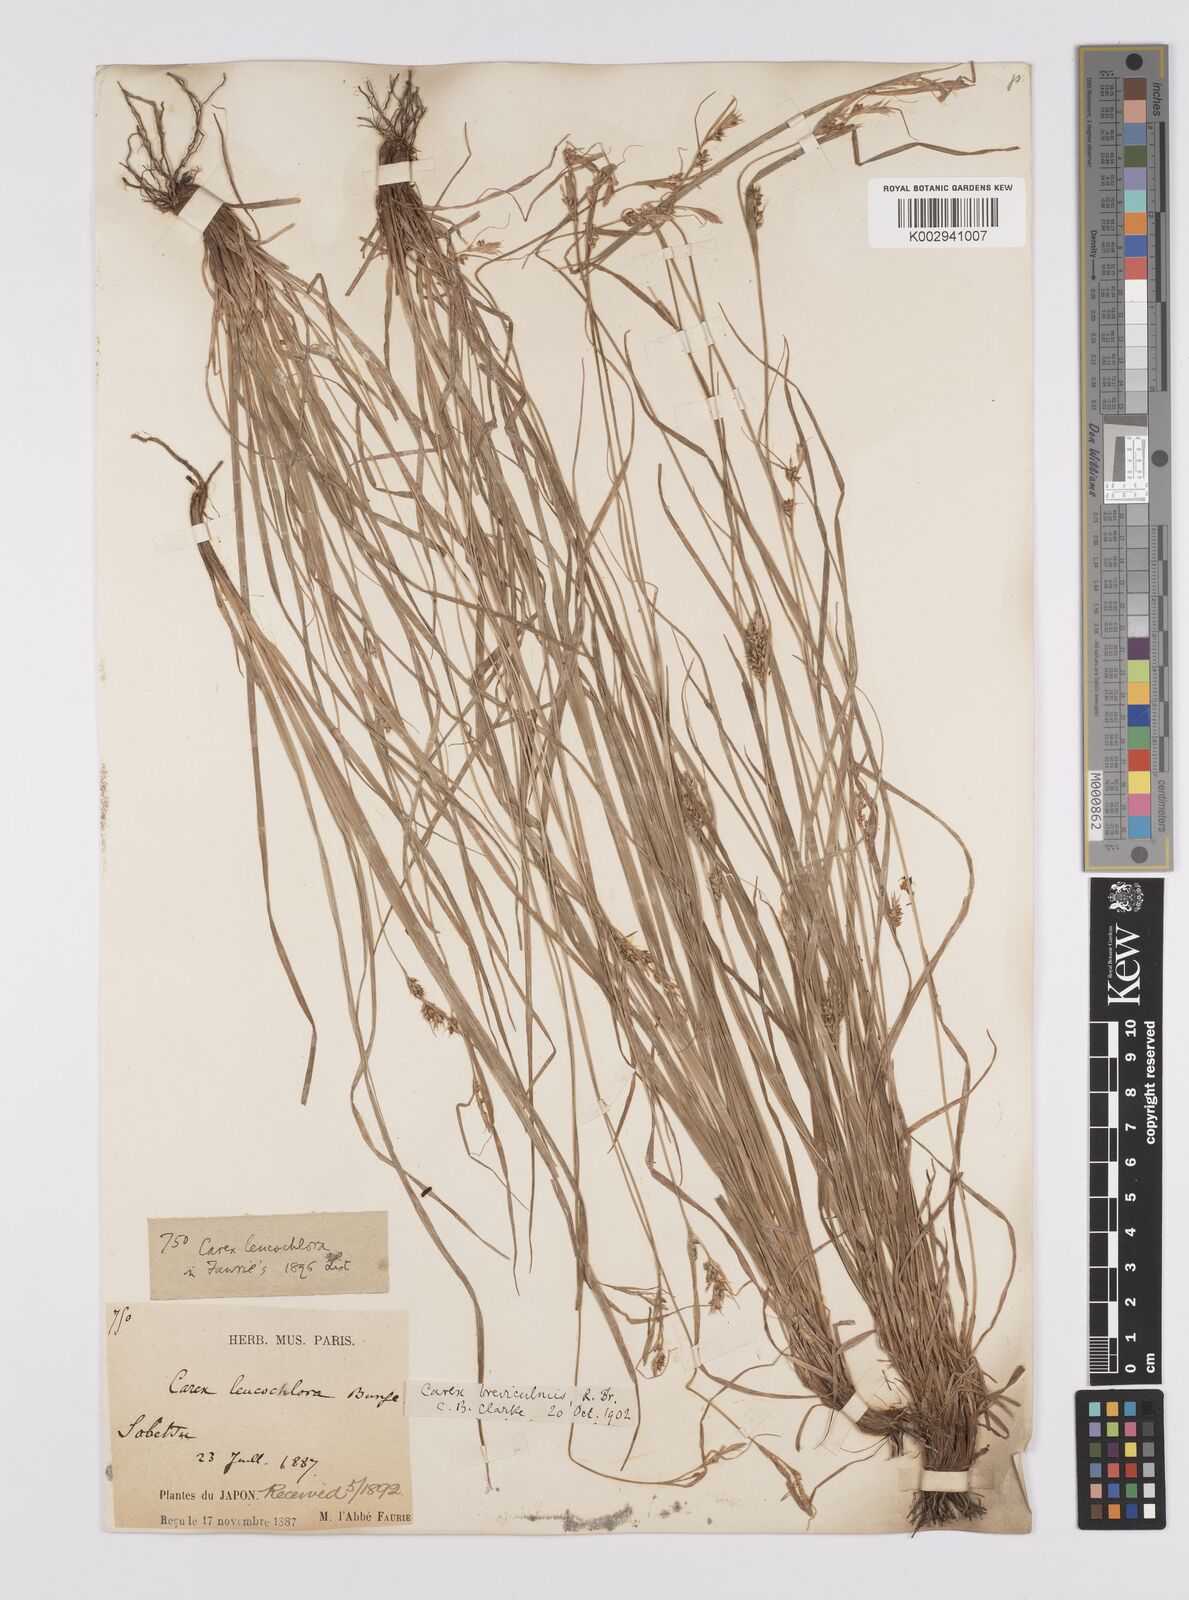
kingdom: Plantae
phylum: Tracheophyta
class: Liliopsida
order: Poales
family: Cyperaceae
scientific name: Cyperaceae
